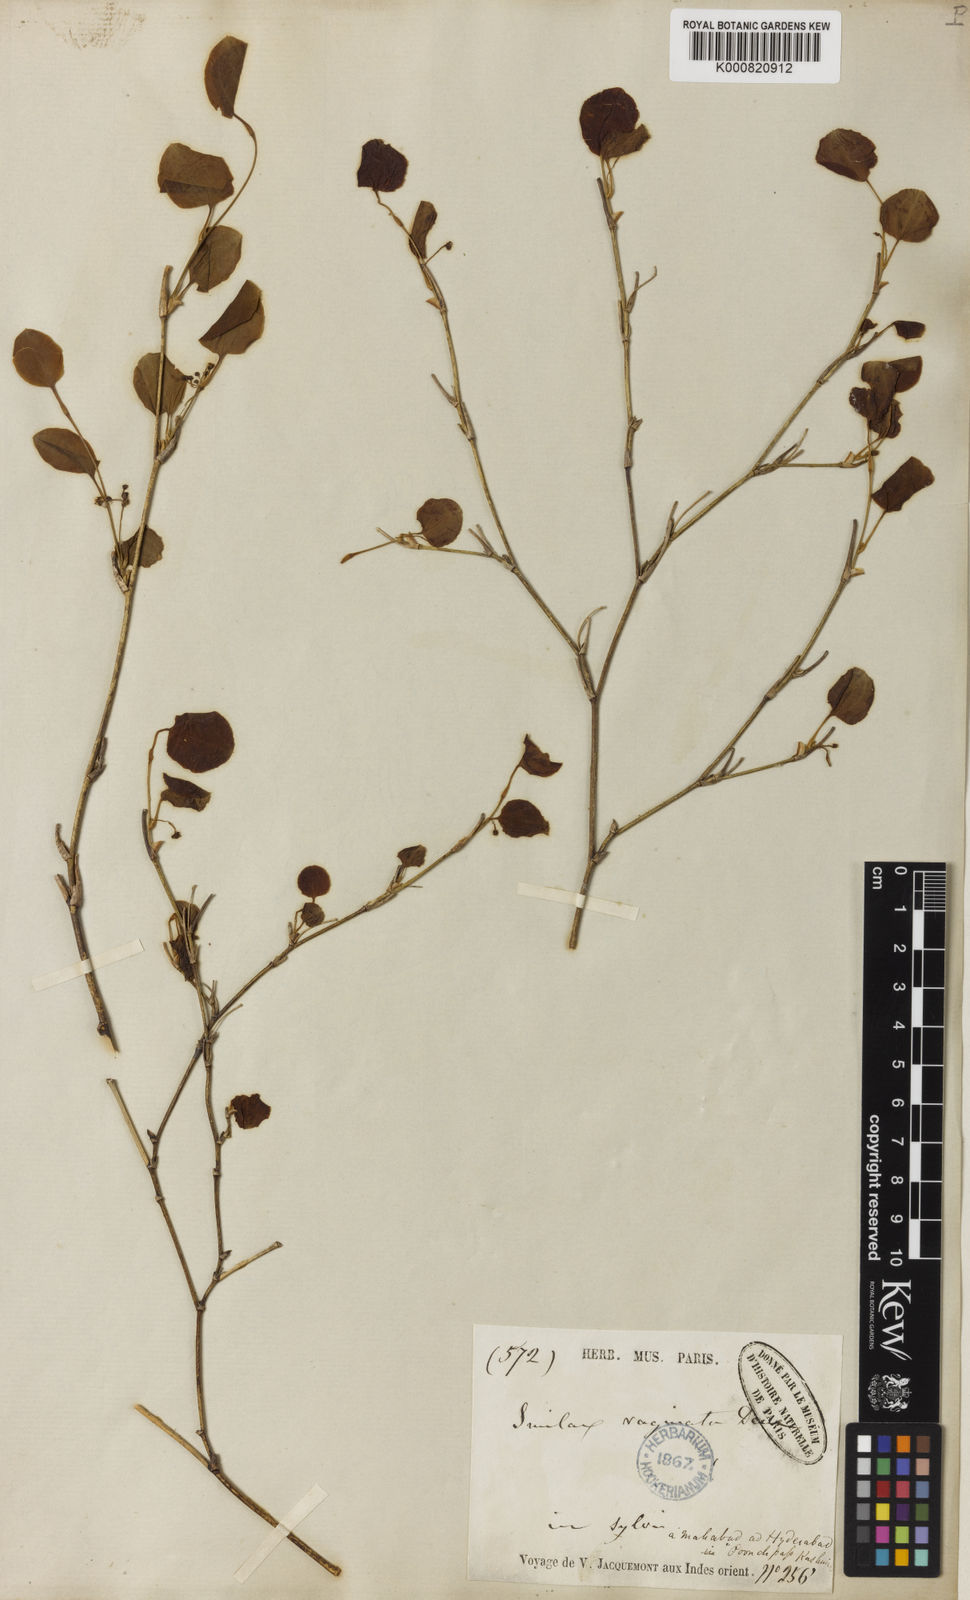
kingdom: Plantae
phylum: Tracheophyta
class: Liliopsida
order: Liliales
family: Smilacaceae
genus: Smilax
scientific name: Smilax vaginata
